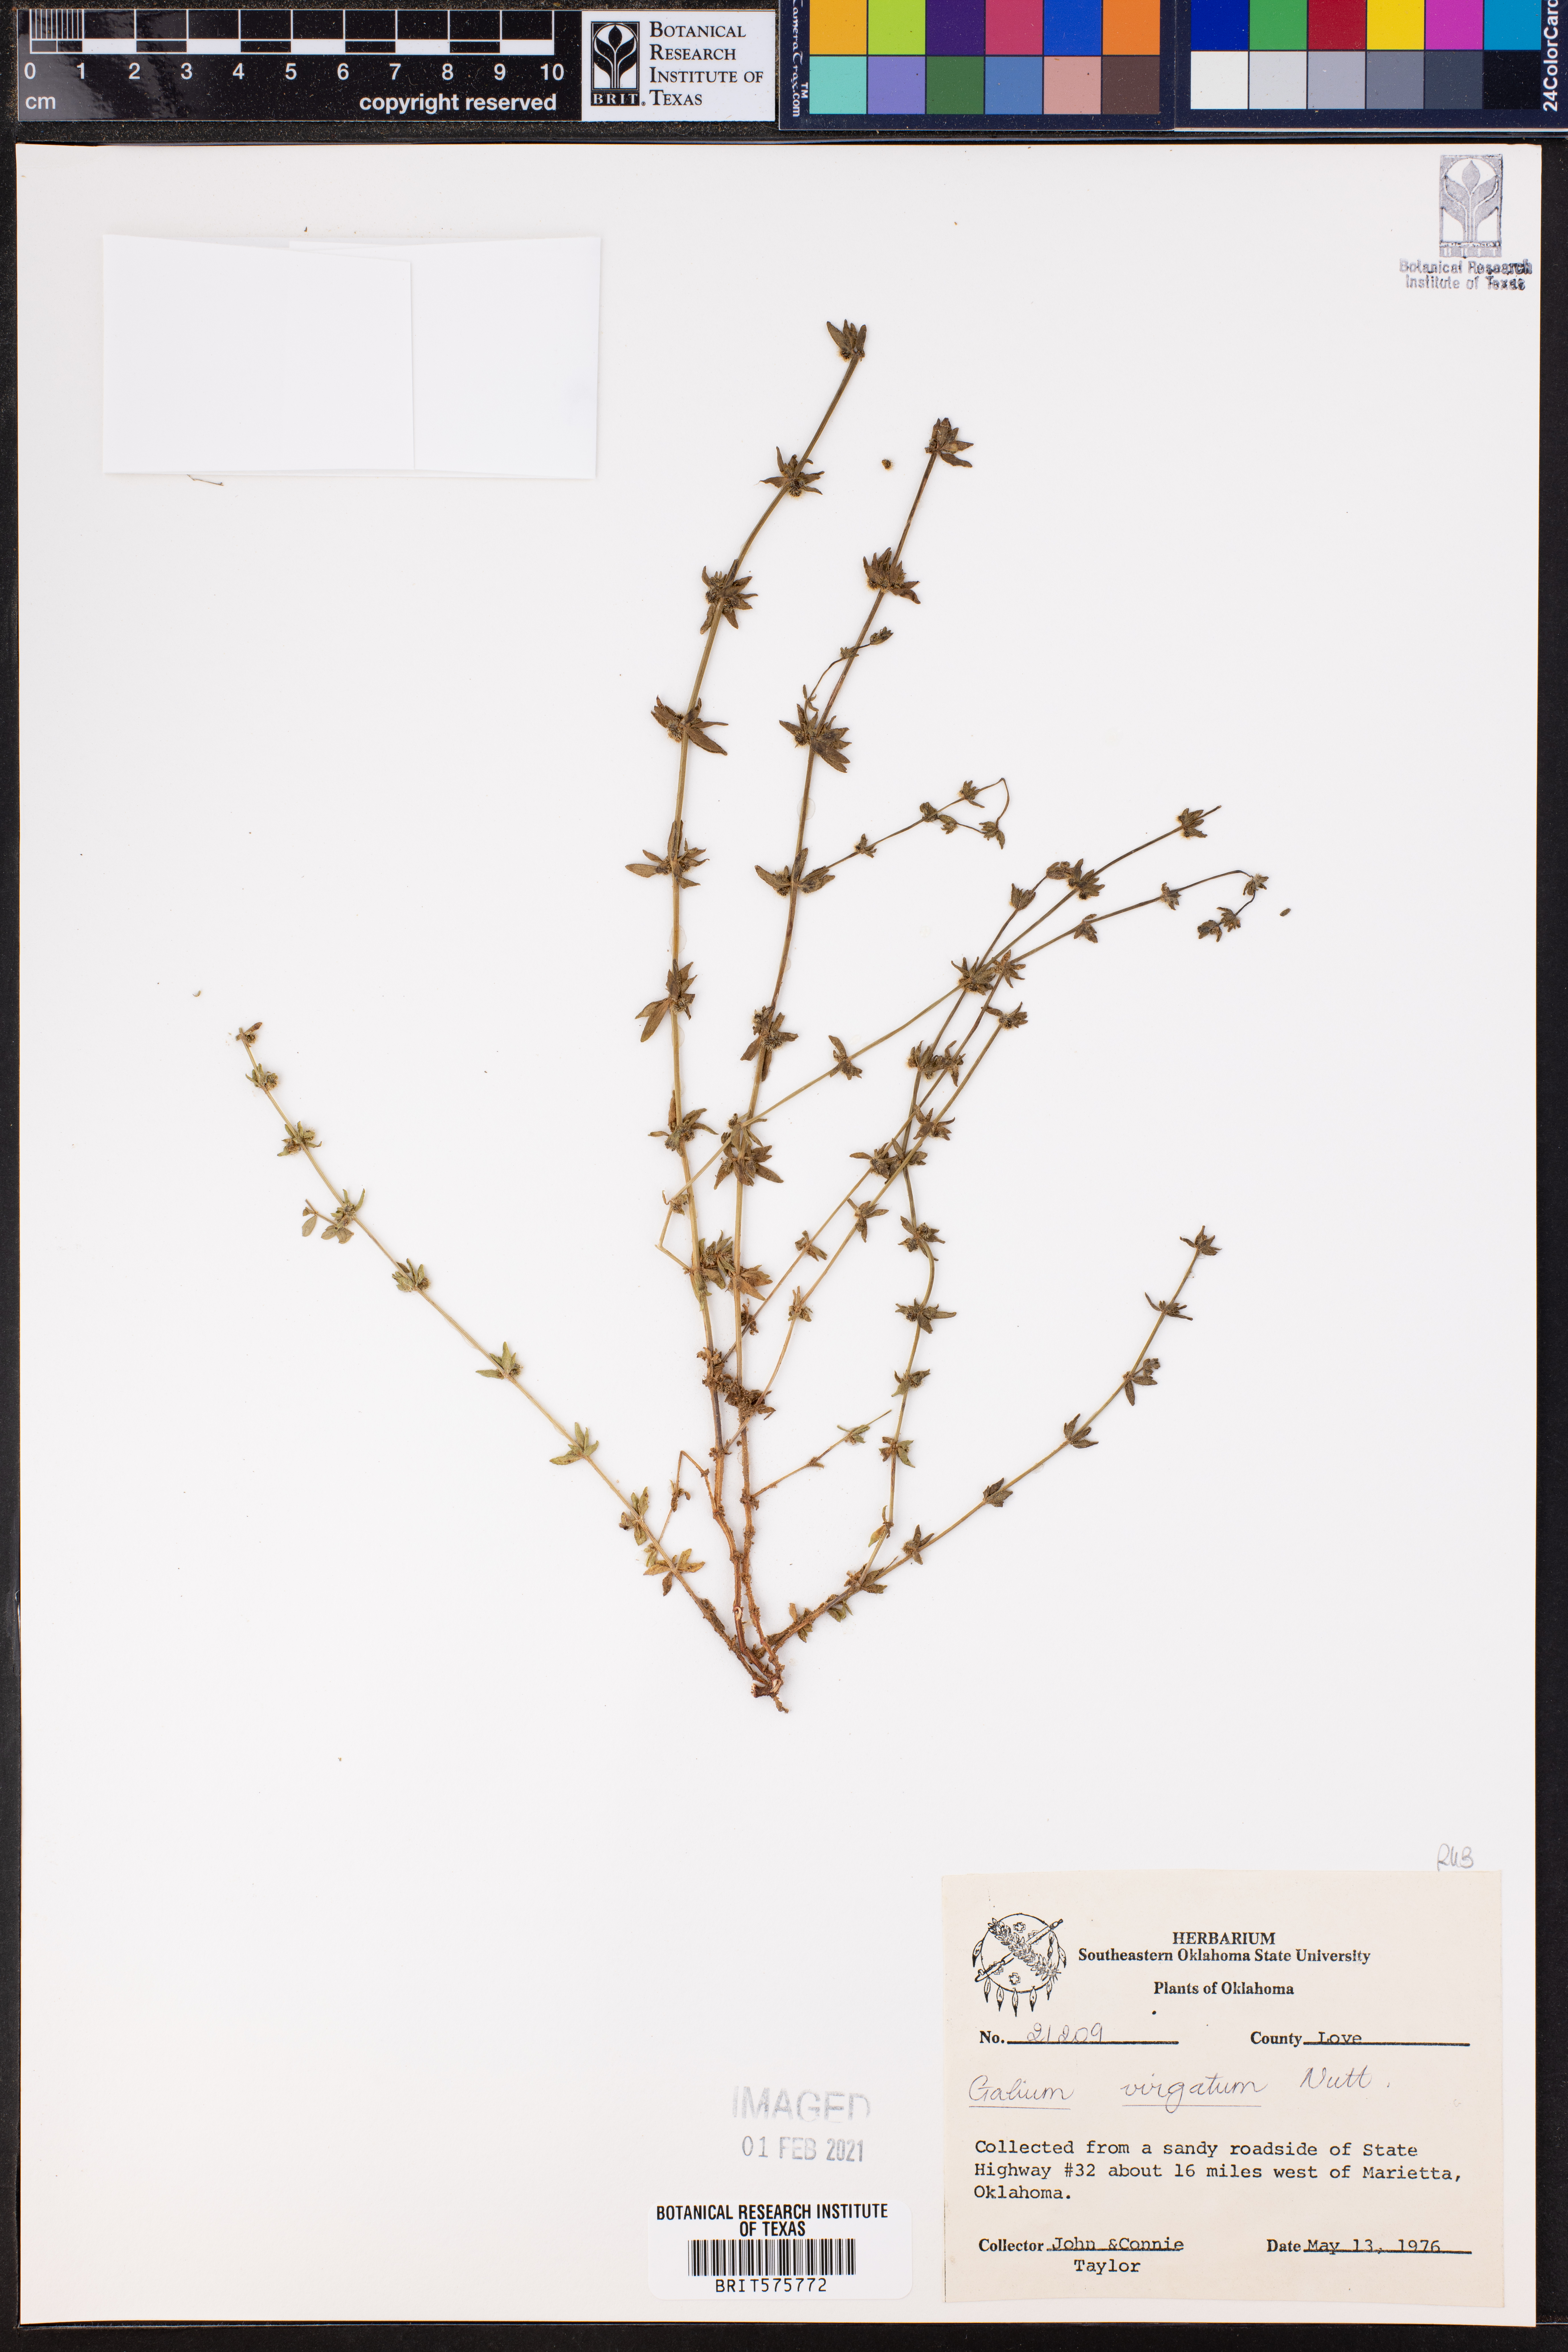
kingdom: Plantae
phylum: Tracheophyta
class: Magnoliopsida
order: Gentianales
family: Rubiaceae
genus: Galium
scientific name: Galium virgatum
